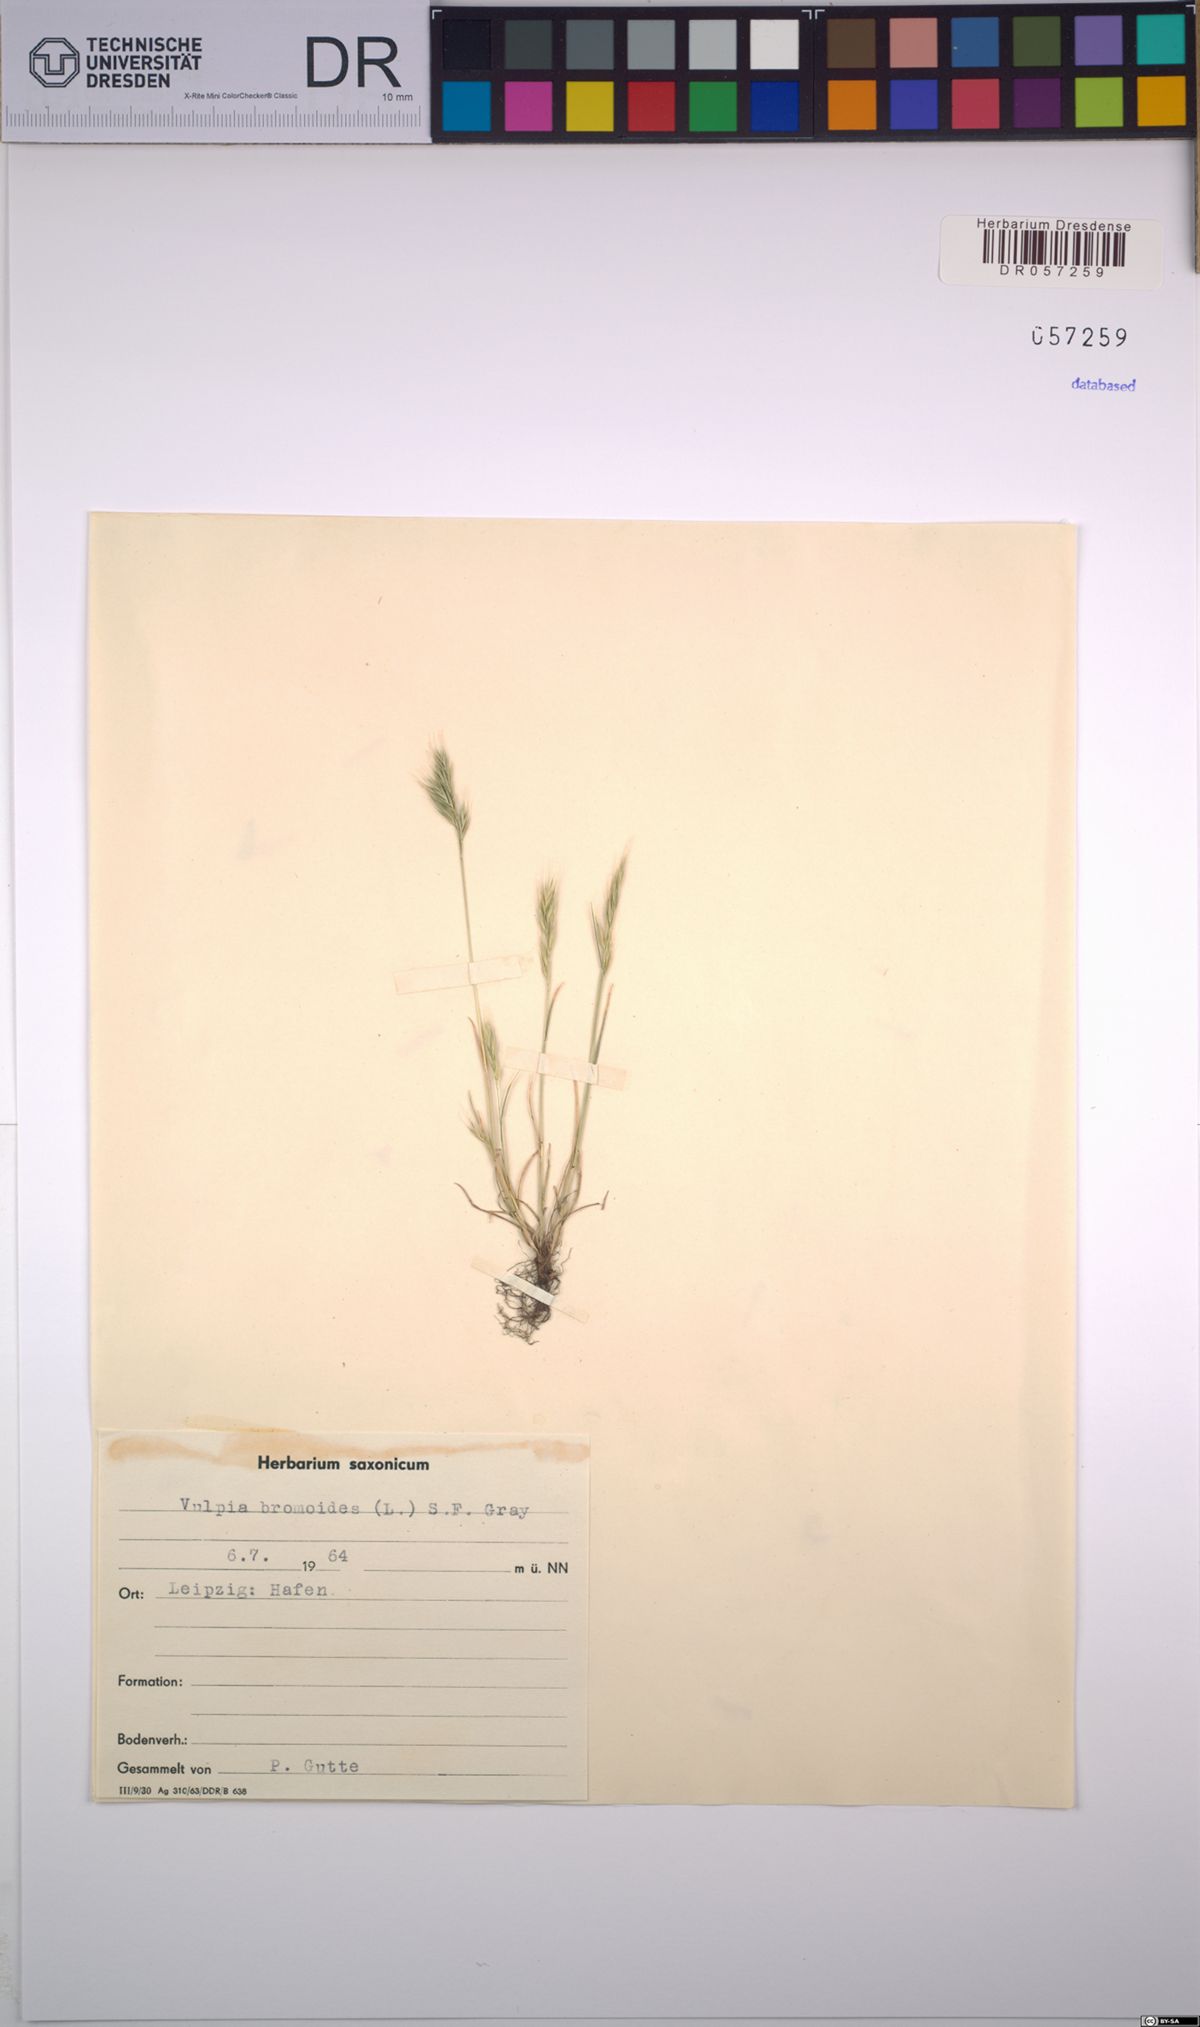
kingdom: Plantae
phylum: Tracheophyta
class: Liliopsida
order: Poales
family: Poaceae
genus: Festuca
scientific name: Festuca bromoides
